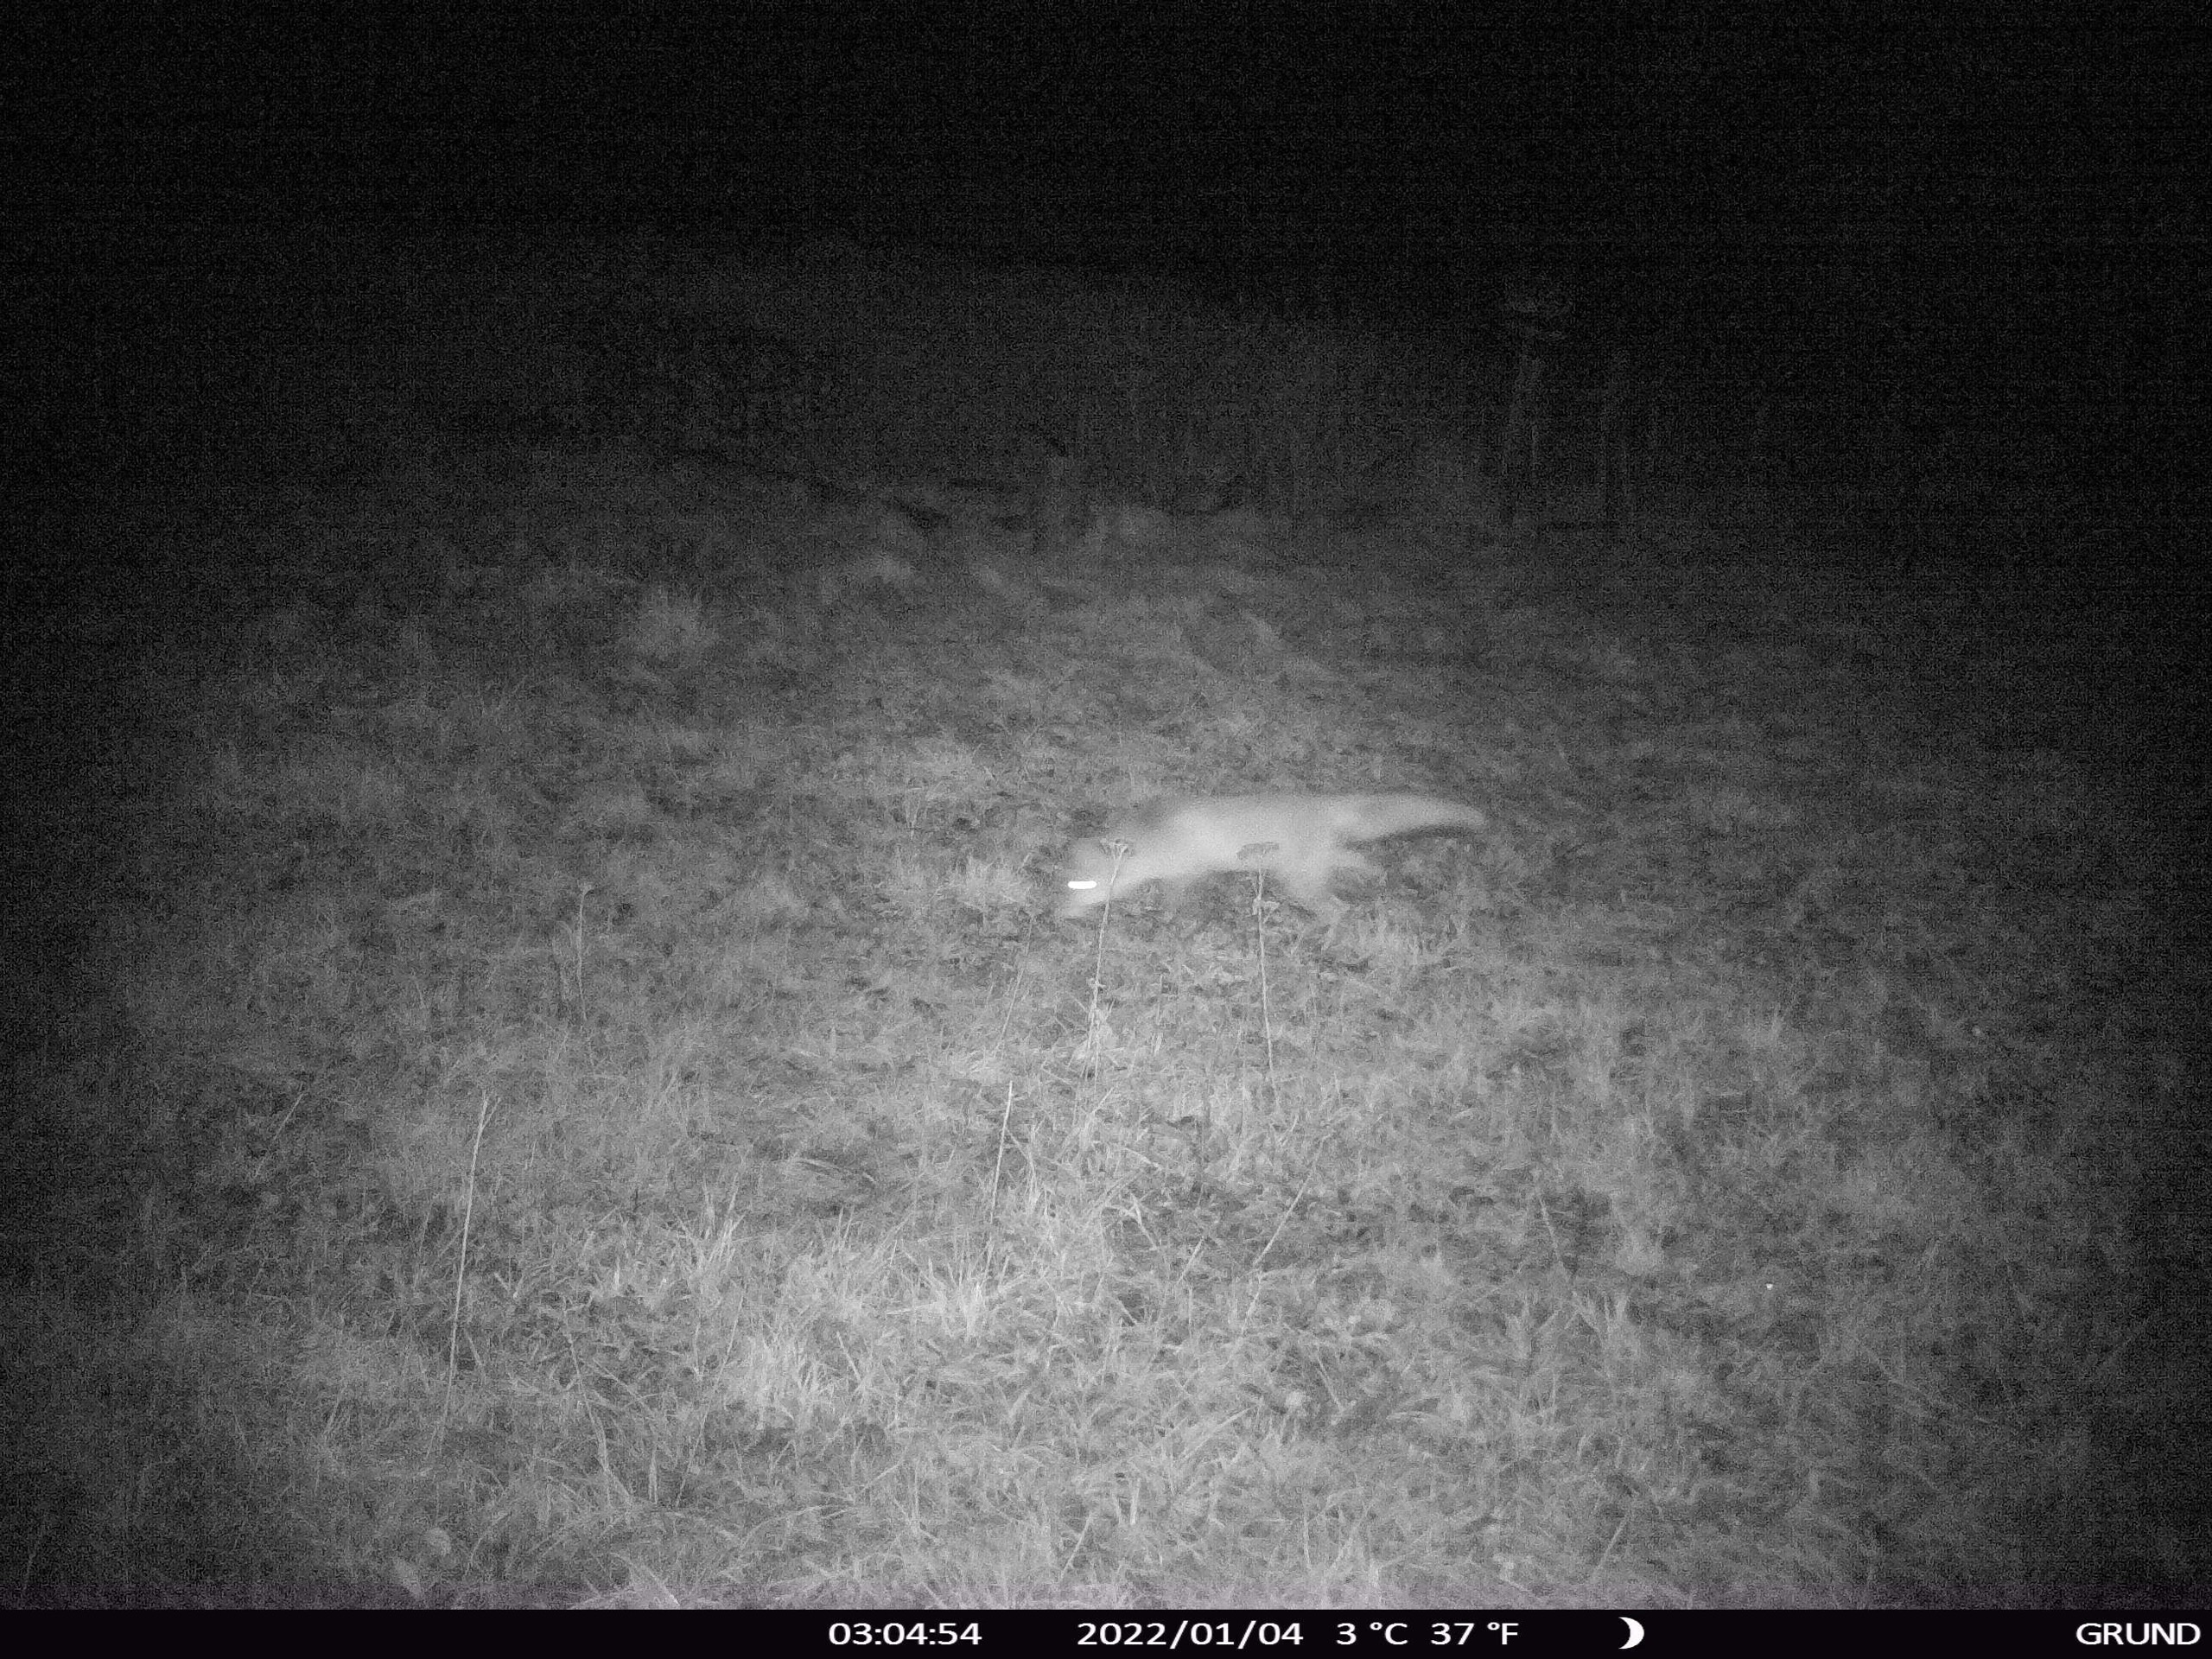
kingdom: Animalia
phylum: Chordata
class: Mammalia
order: Carnivora
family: Canidae
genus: Vulpes
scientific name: Vulpes vulpes
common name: Ræv
